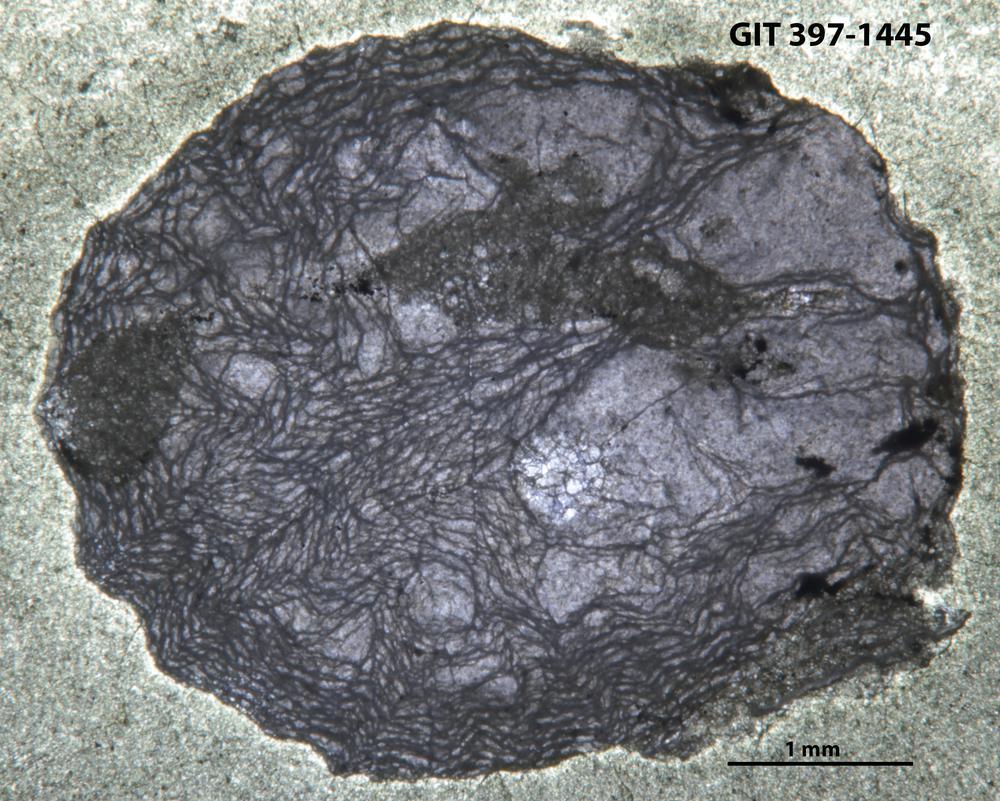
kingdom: Animalia
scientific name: Animalia
